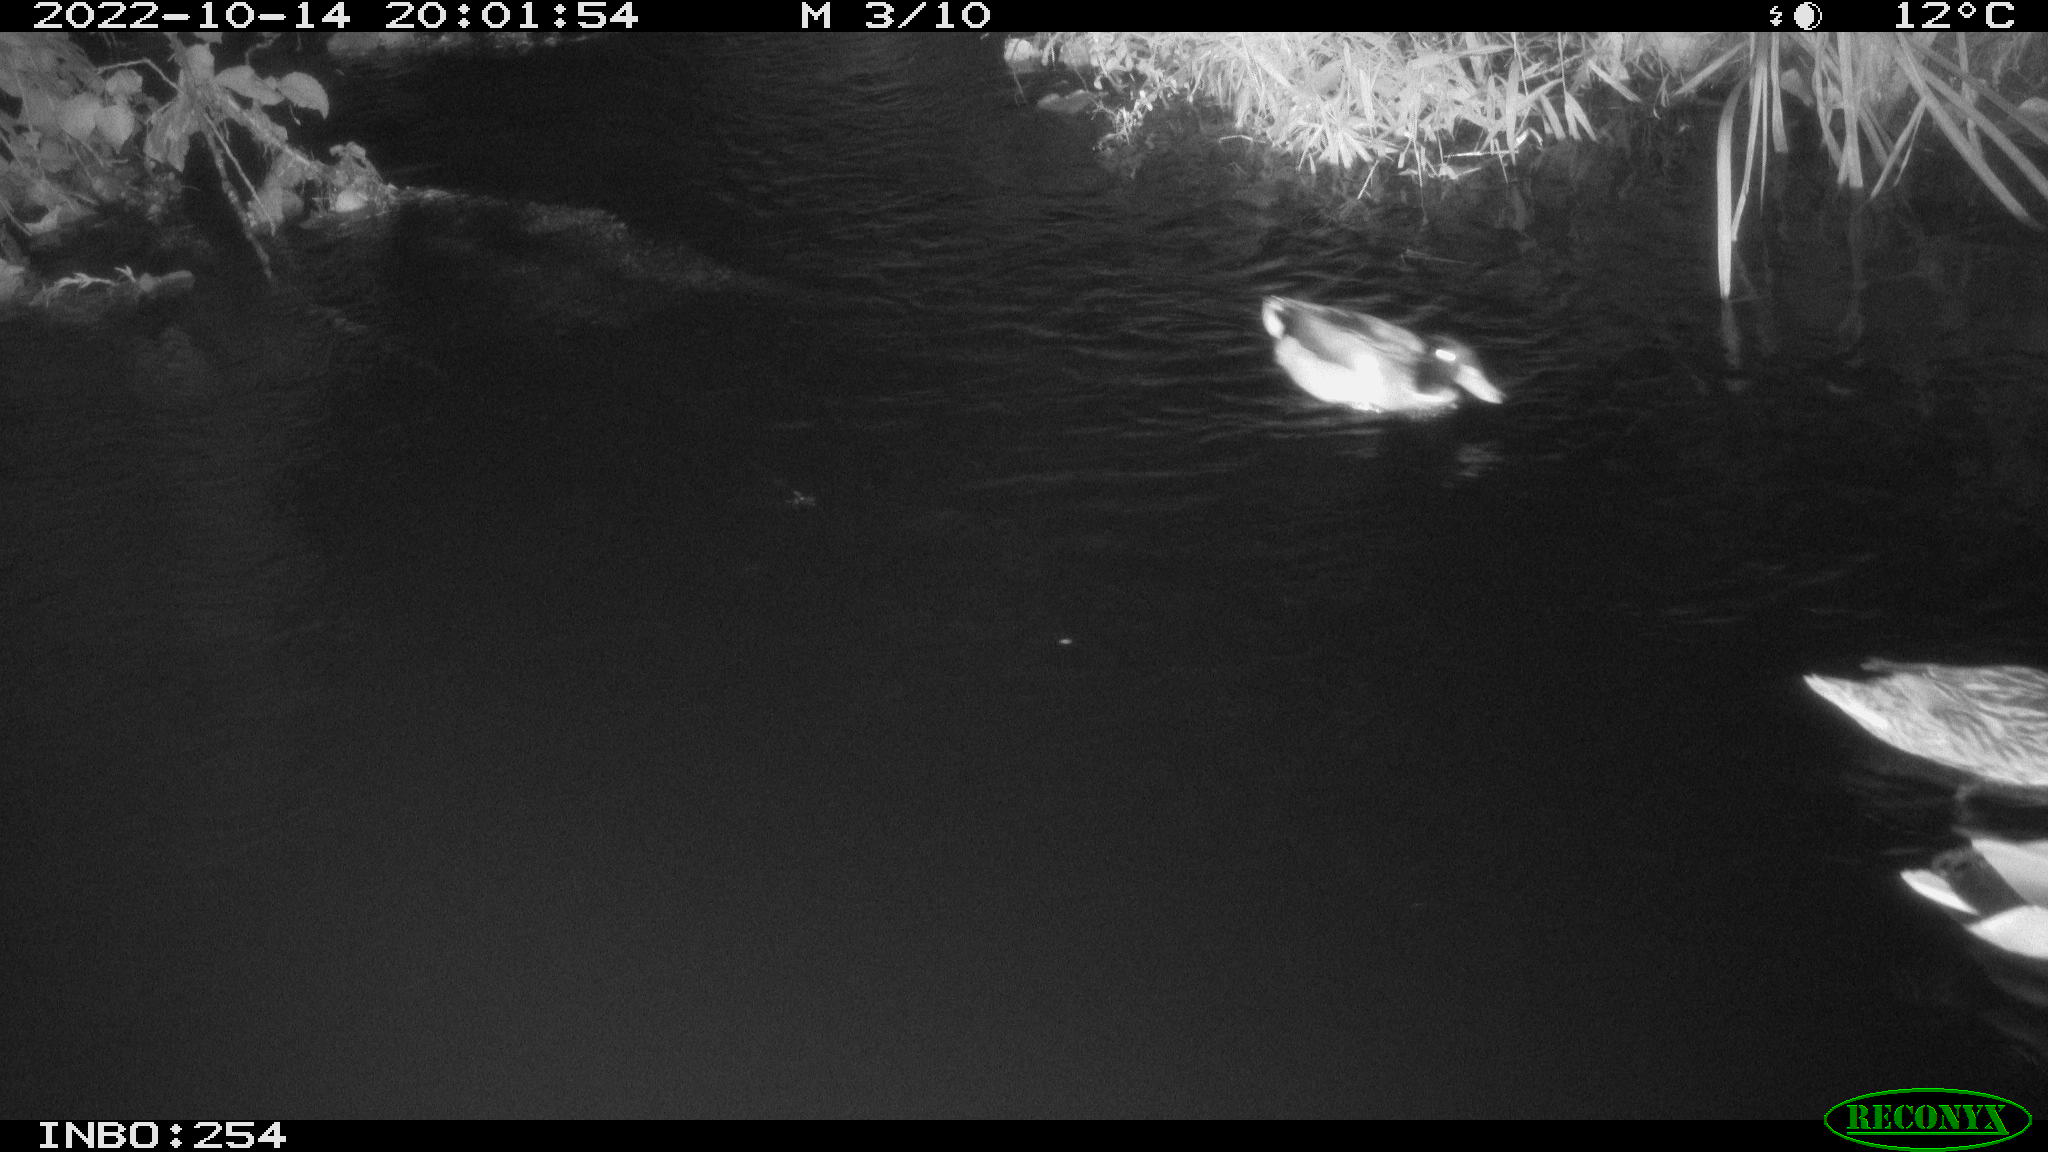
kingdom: Animalia
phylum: Chordata
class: Aves
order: Anseriformes
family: Anatidae
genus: Anas
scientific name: Anas
